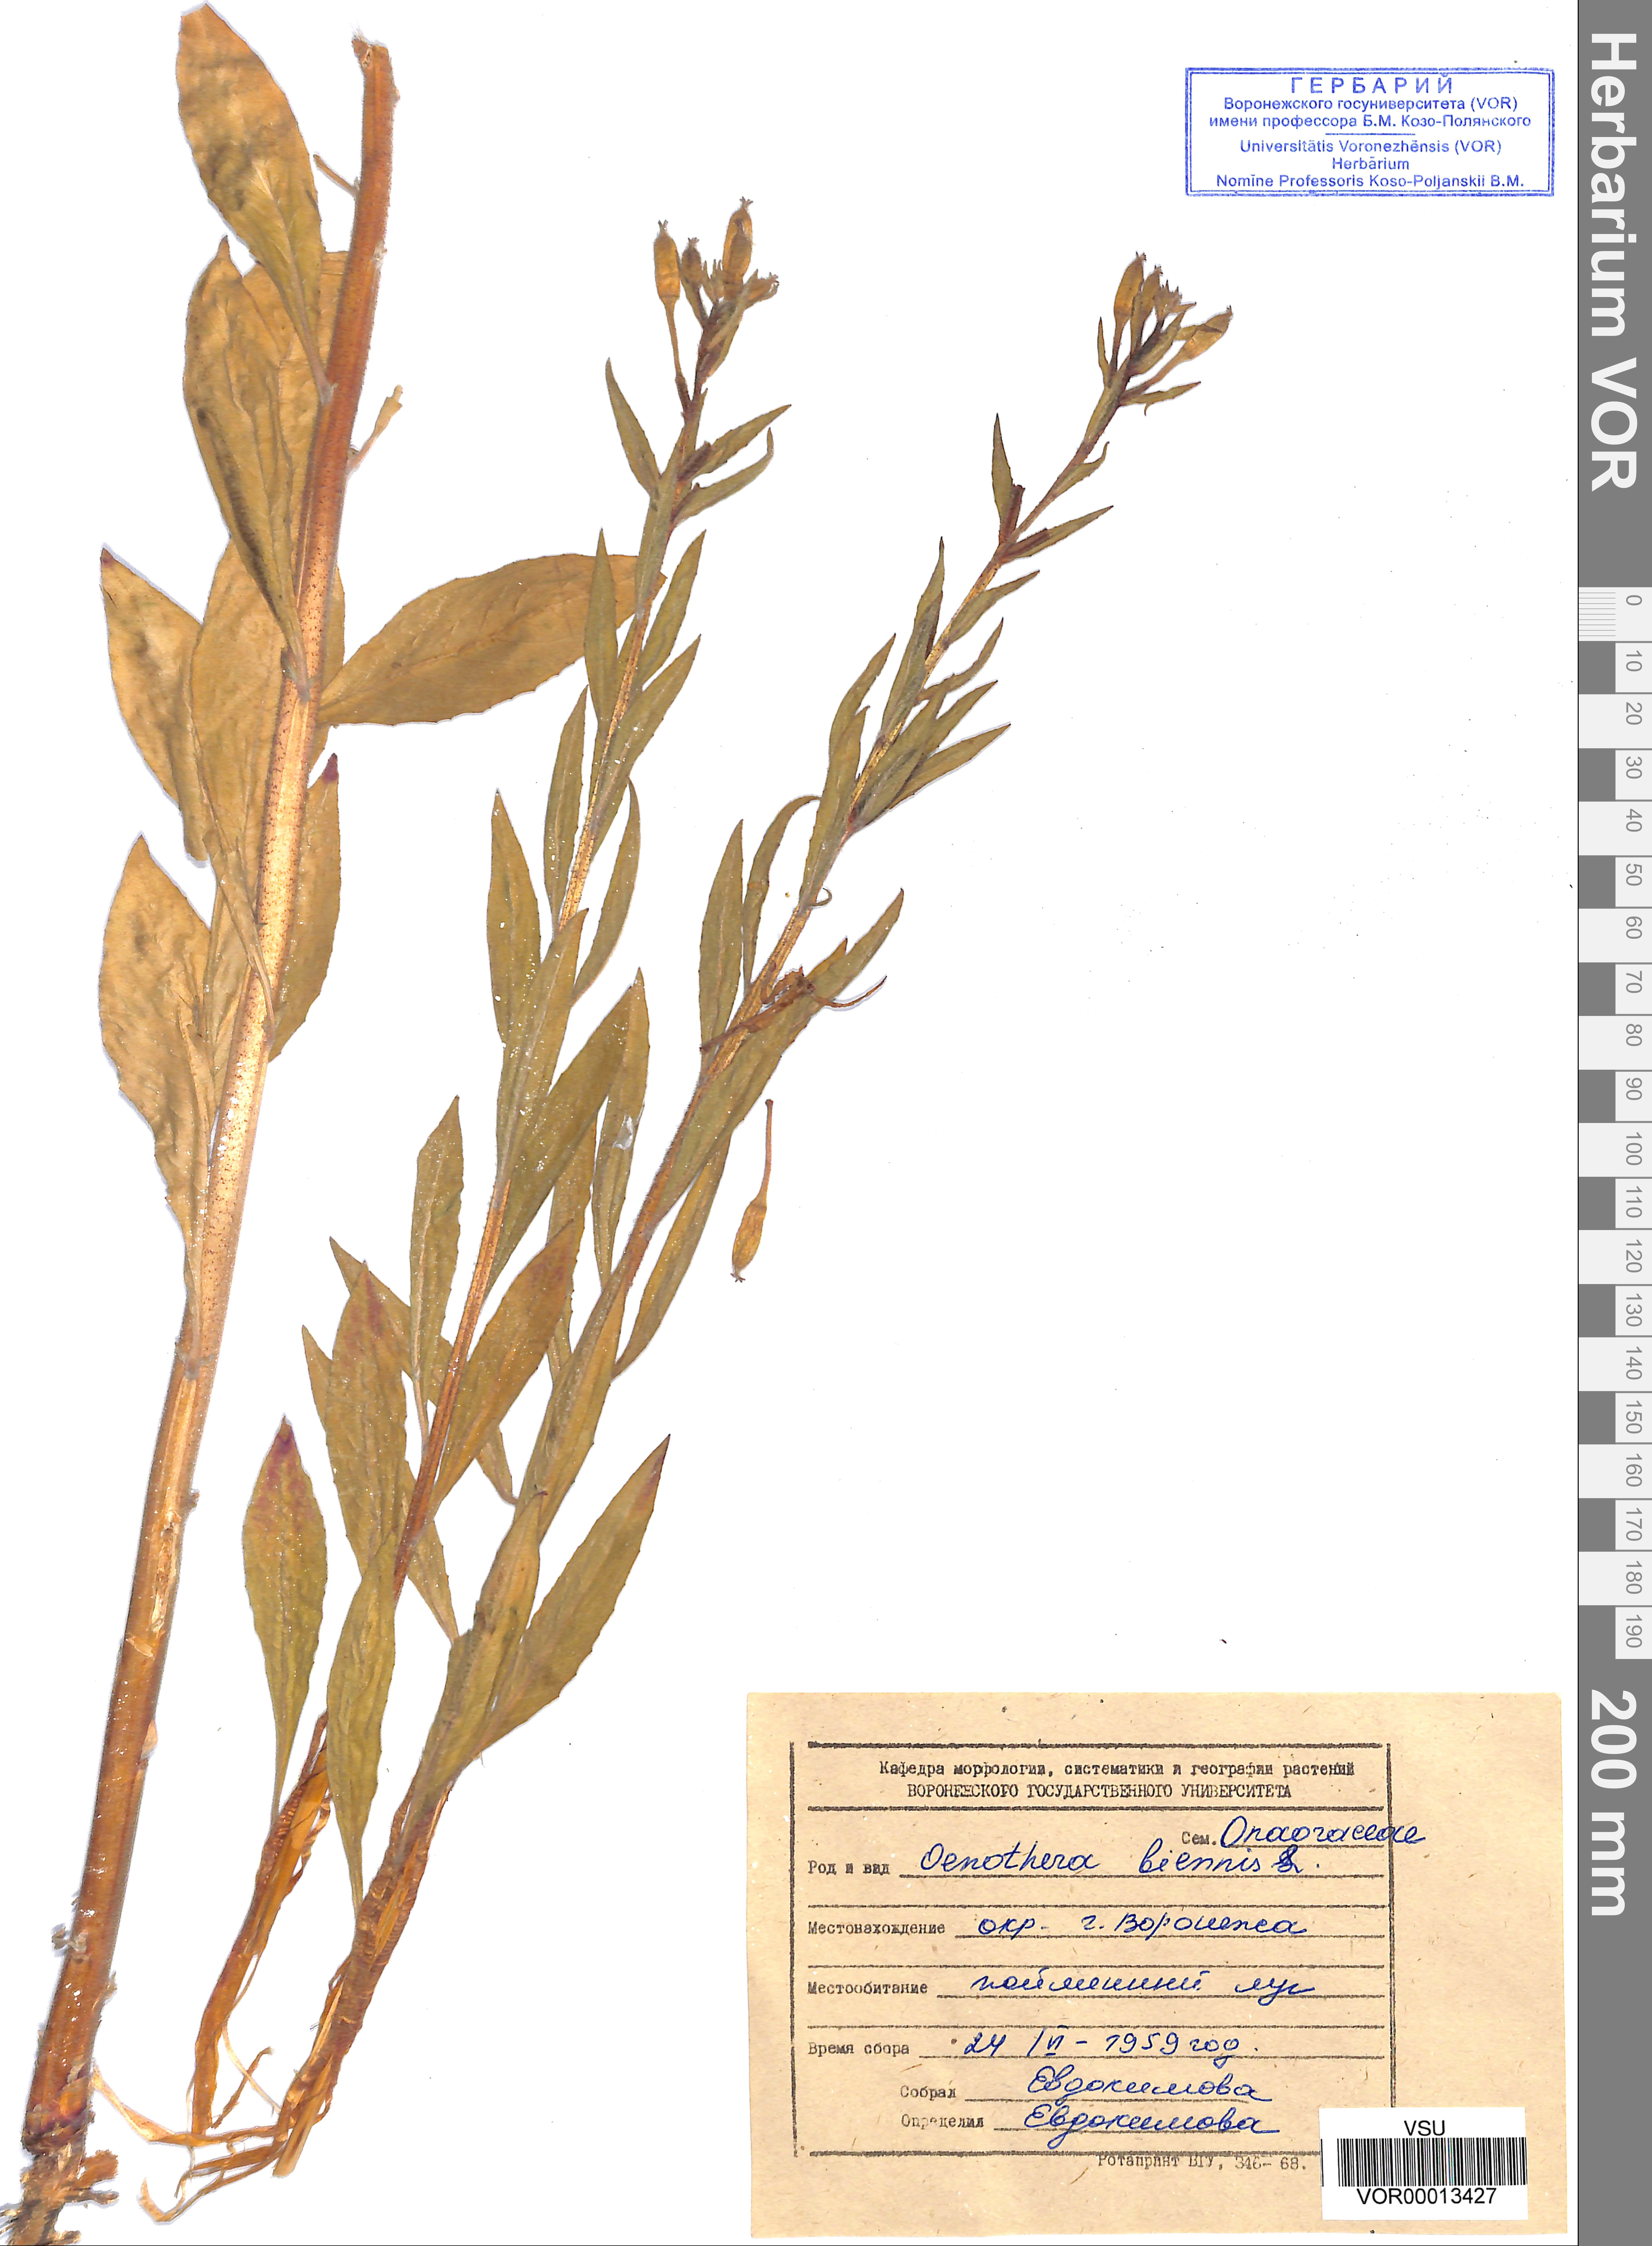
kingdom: Plantae
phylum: Tracheophyta
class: Magnoliopsida
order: Myrtales
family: Onagraceae
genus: Oenothera
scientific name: Oenothera biennis
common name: Common evening-primrose
